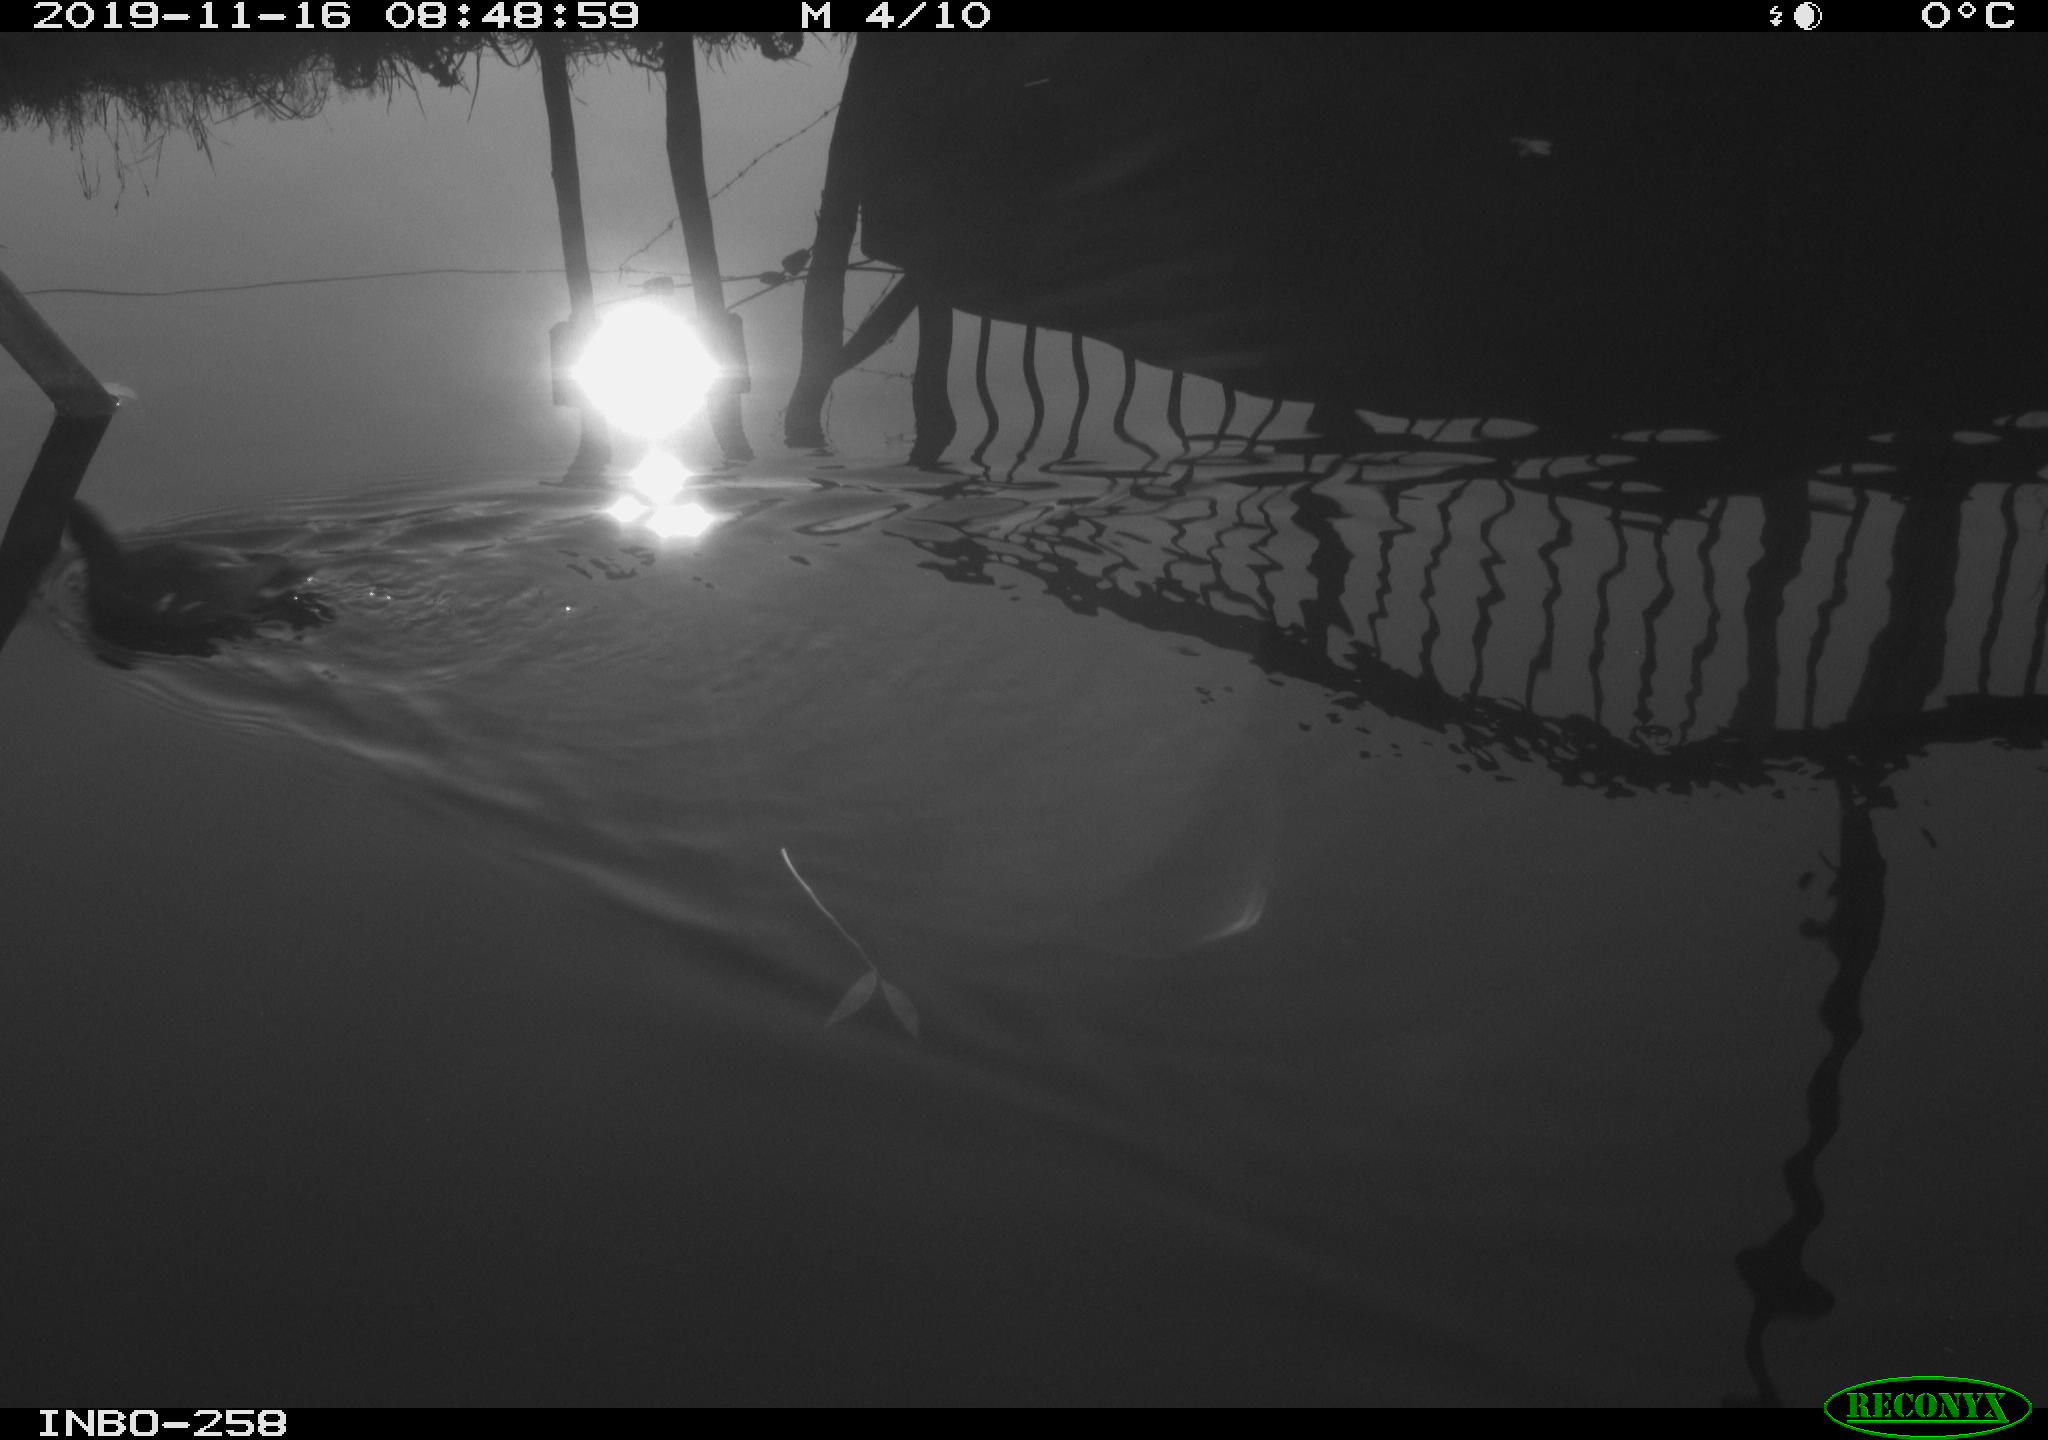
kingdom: Animalia
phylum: Chordata
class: Aves
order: Gruiformes
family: Rallidae
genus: Gallinula
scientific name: Gallinula chloropus
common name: Common moorhen
